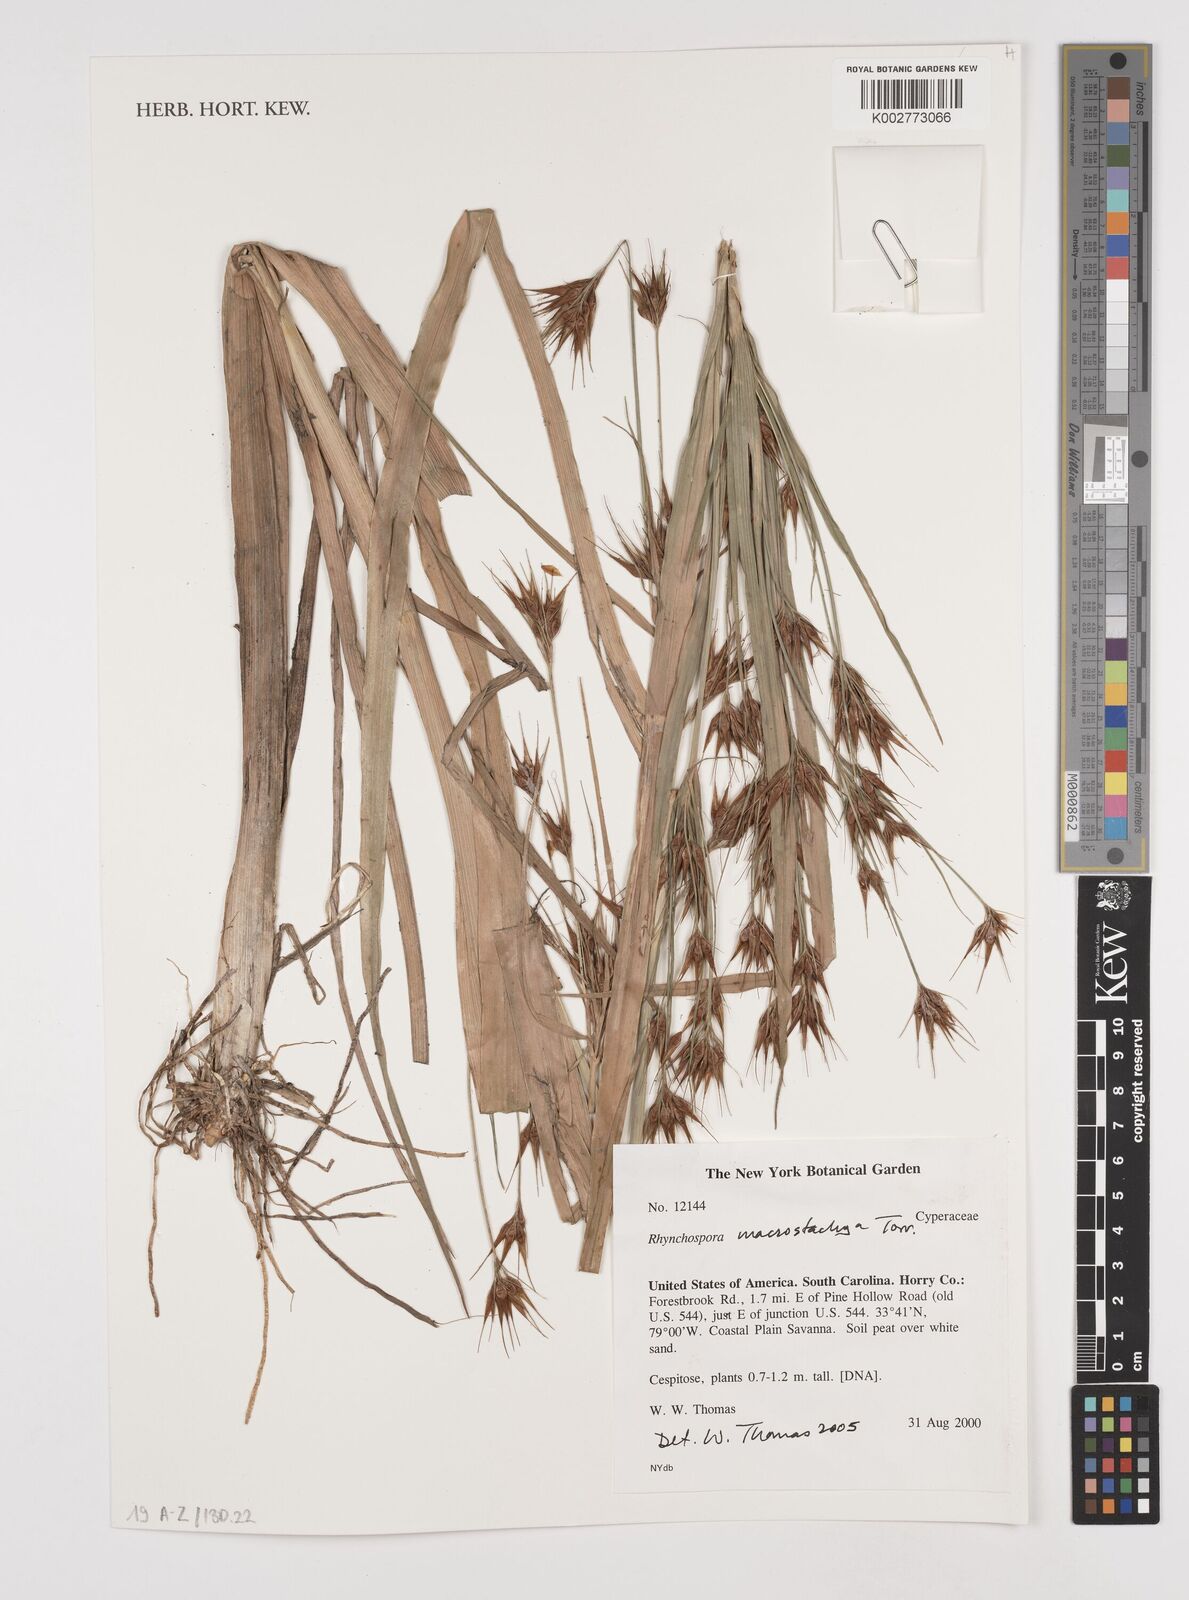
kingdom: Plantae
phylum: Tracheophyta
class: Liliopsida
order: Poales
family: Cyperaceae
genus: Rhynchospora
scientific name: Rhynchospora macrostachya
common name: Tall beakrush
